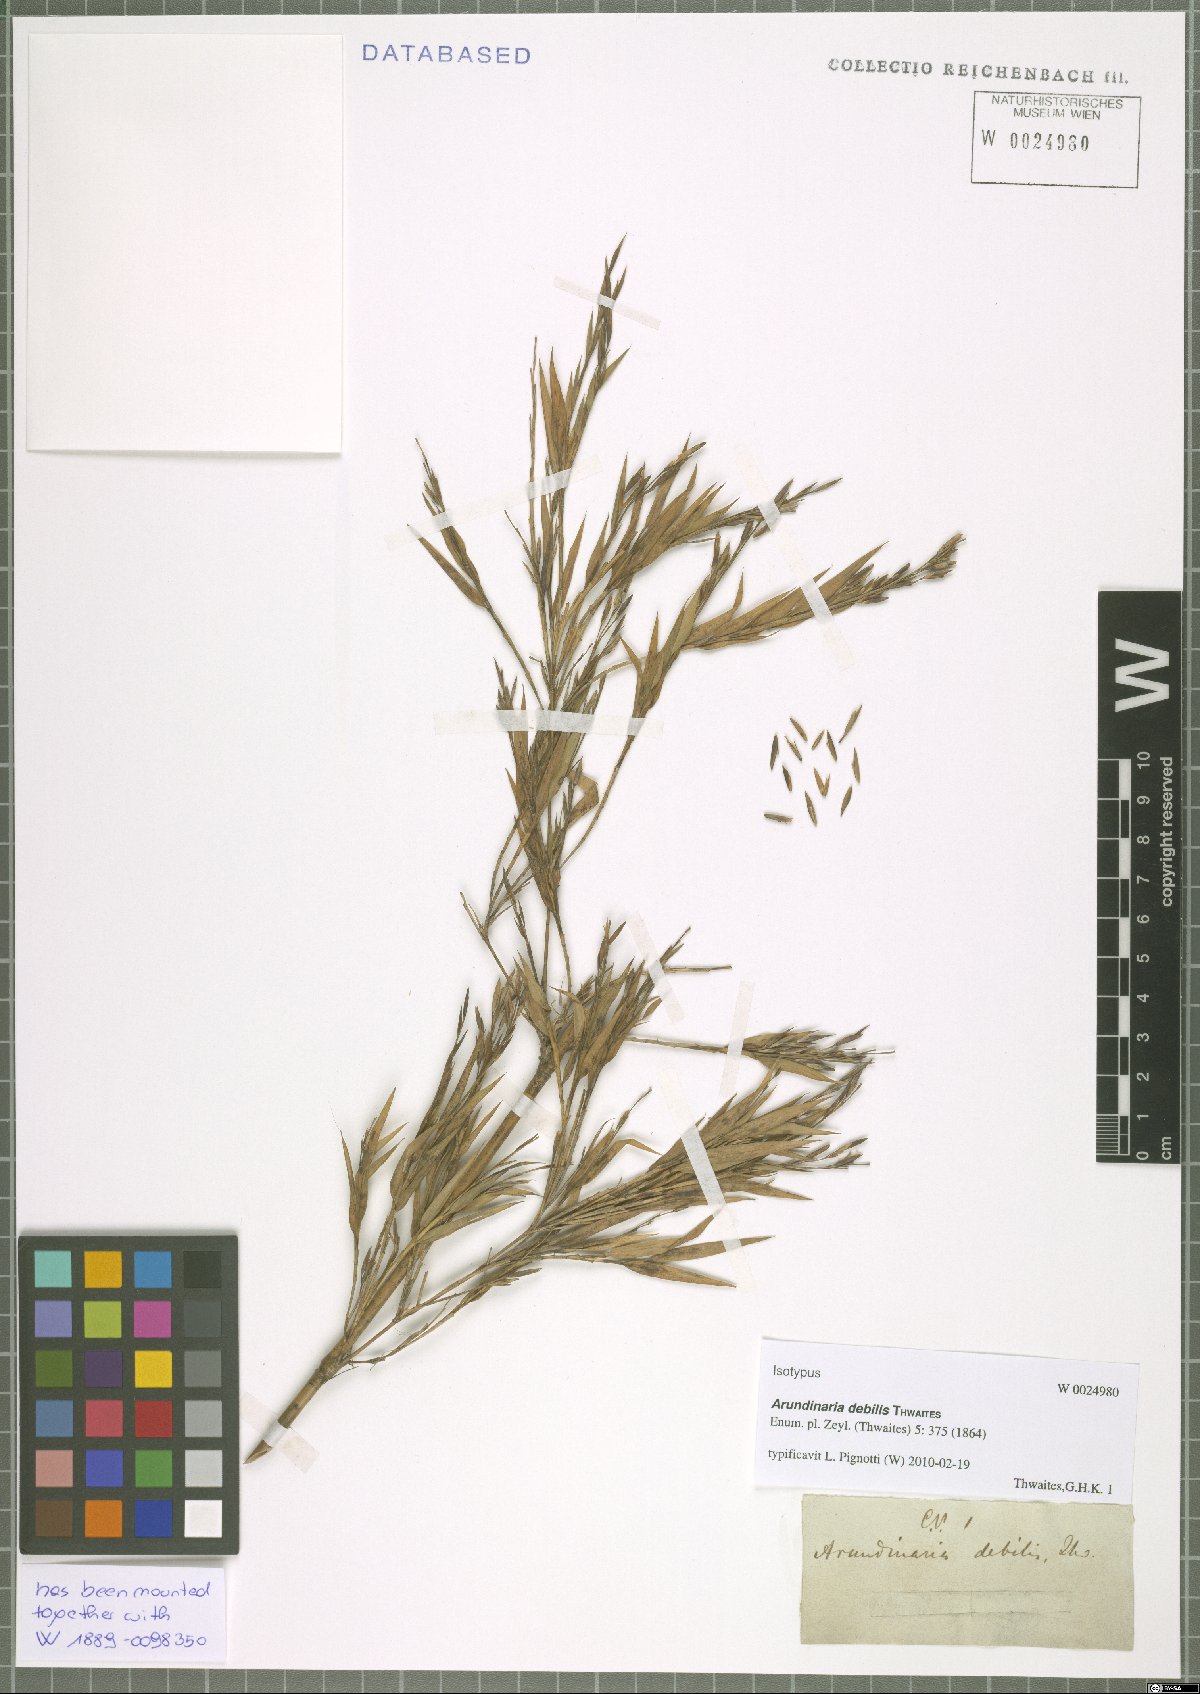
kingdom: Plantae
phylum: Tracheophyta
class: Liliopsida
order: Poales
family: Poaceae
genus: Kuruna
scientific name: Kuruna debilis
